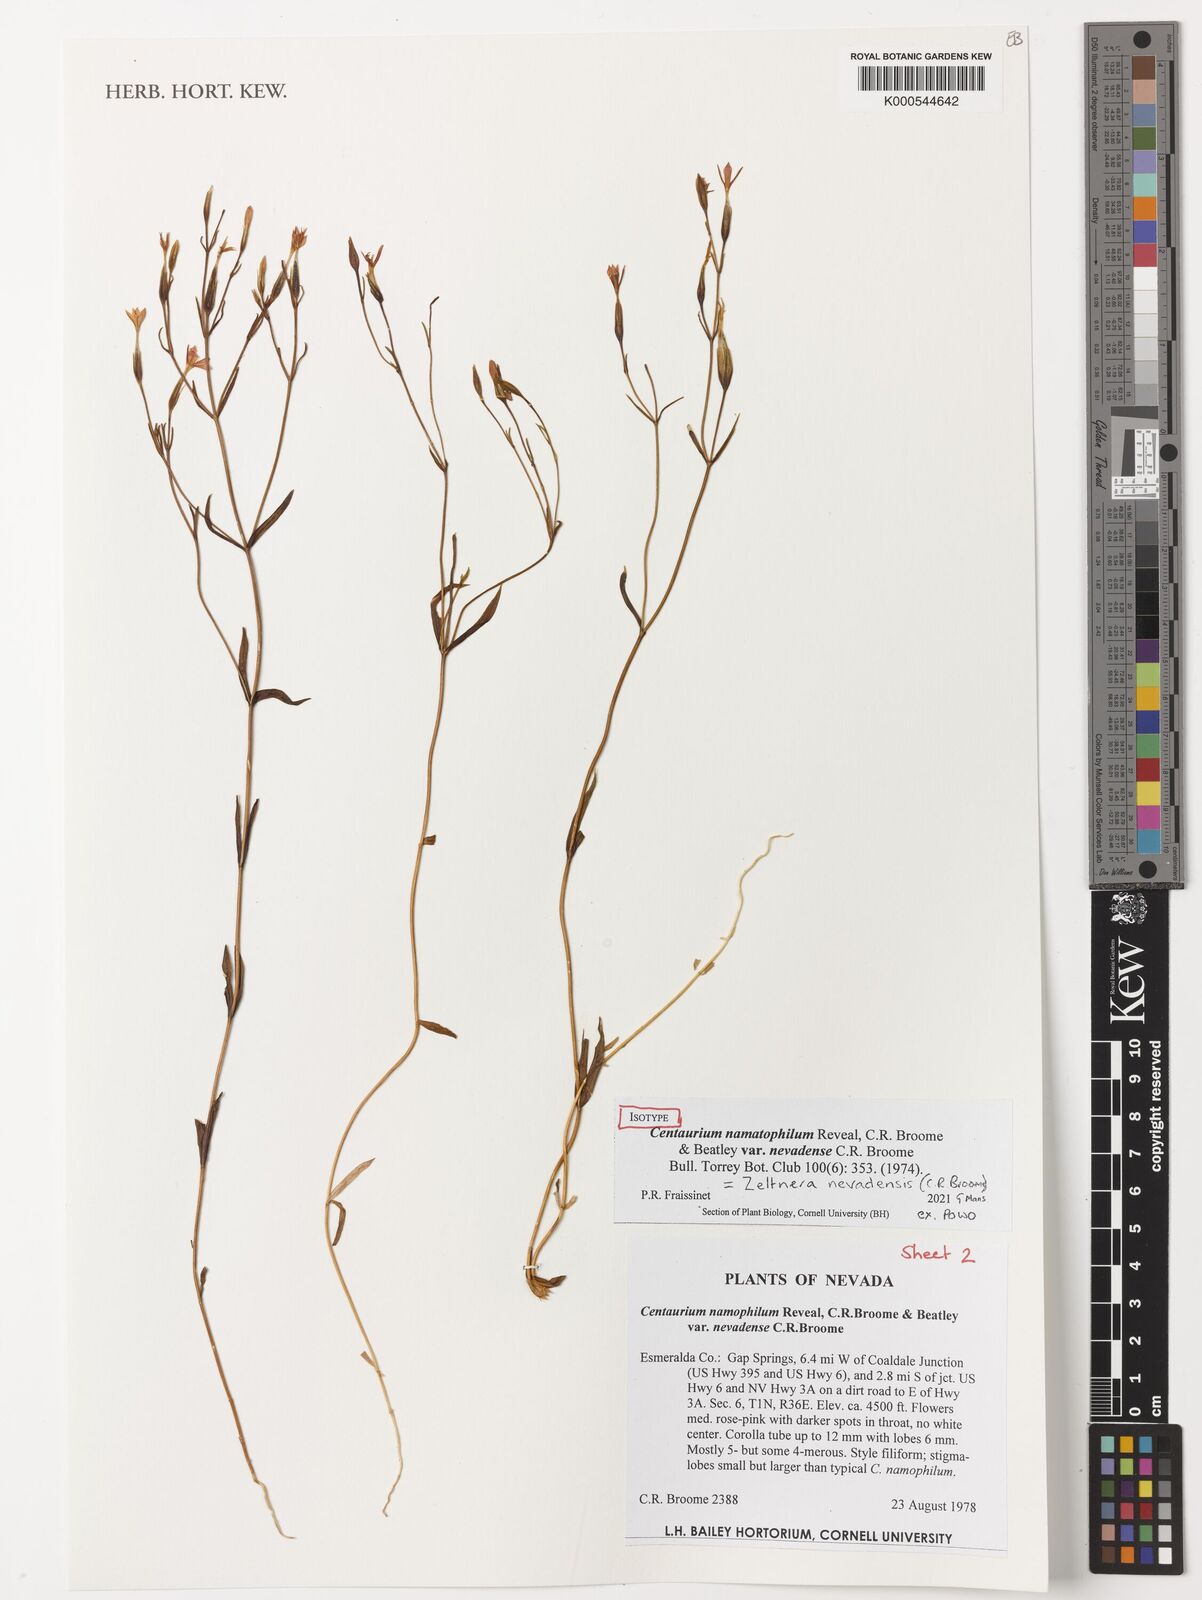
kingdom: Plantae
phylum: Tracheophyta
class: Magnoliopsida
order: Gentianales
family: Gentianaceae
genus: Zeltnera
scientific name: Zeltnera namatophila
